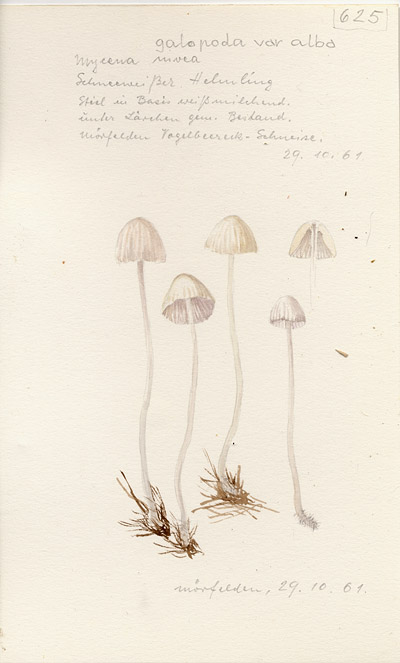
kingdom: Fungi
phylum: Basidiomycota
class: Agaricomycetes
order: Agaricales
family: Mycenaceae
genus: Mycena
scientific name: Mycena galopus
